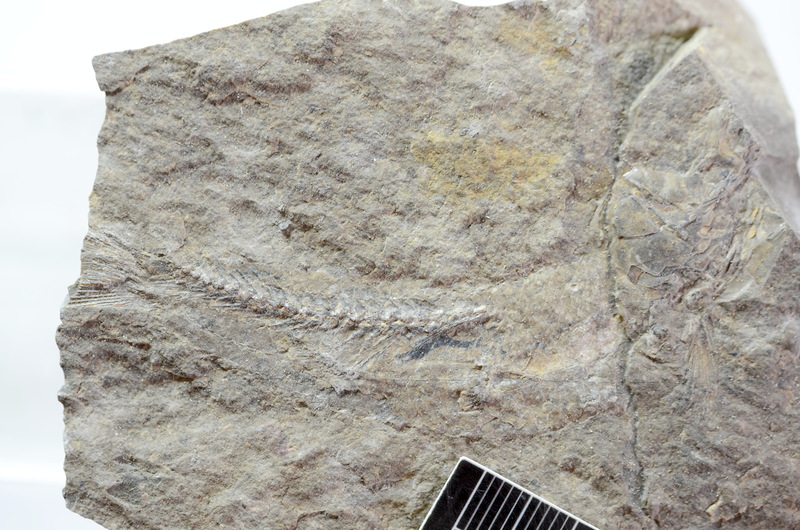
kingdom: Animalia
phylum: Chordata
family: Leptolepididae
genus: Leptolepis
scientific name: Leptolepis coryphaenoides
